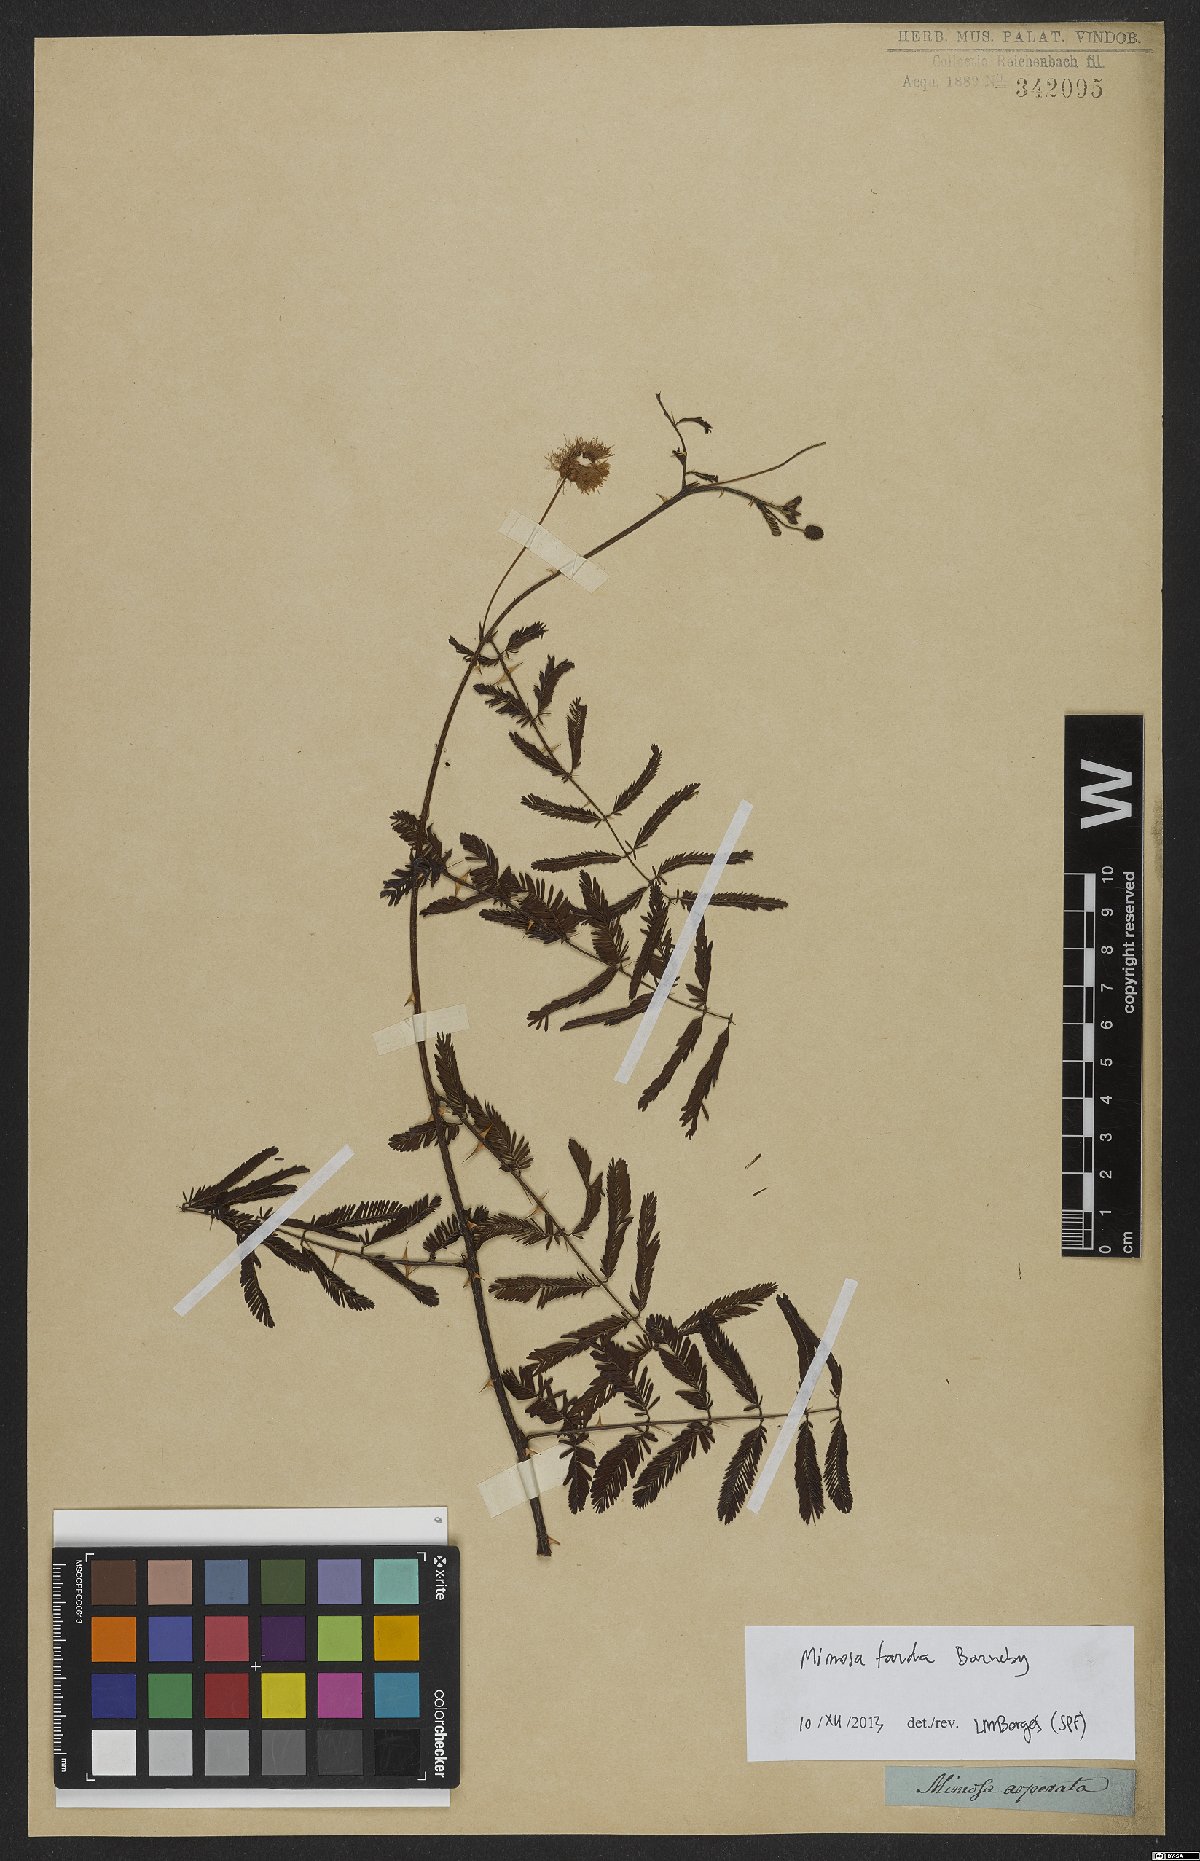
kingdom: Plantae
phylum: Tracheophyta
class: Magnoliopsida
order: Fabales
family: Fabaceae
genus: Mimosa
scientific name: Mimosa tarda
